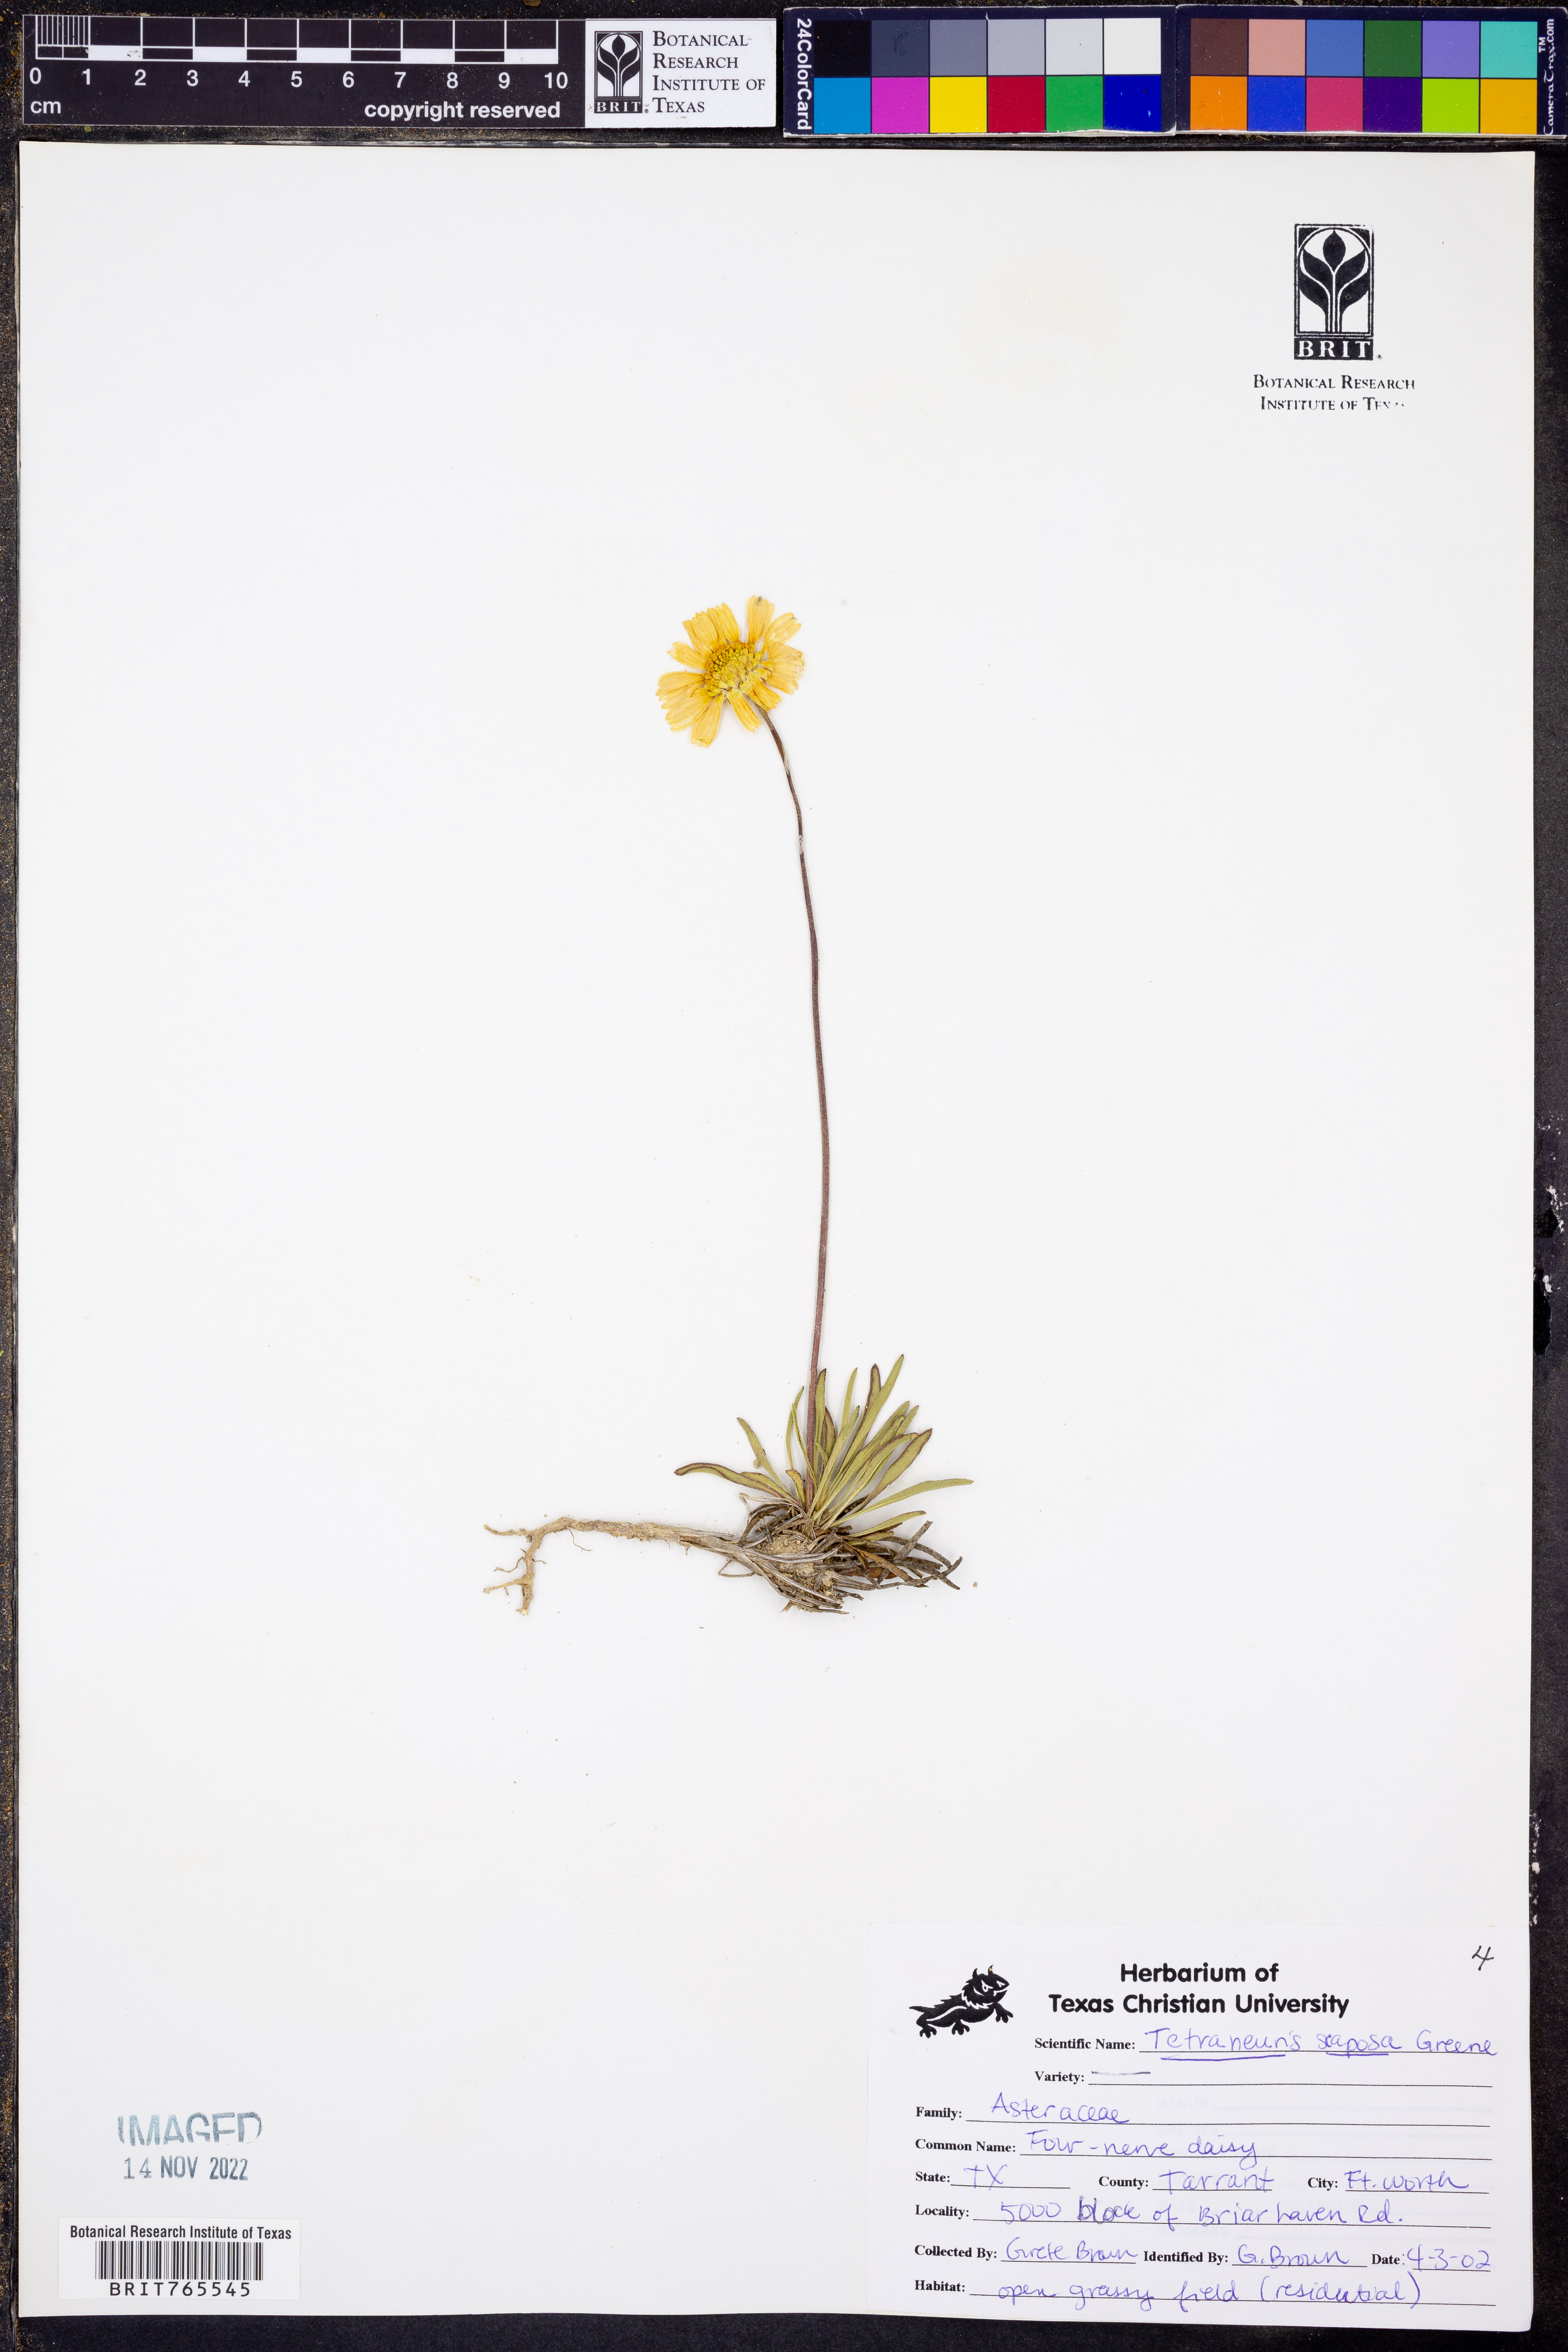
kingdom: Plantae
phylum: Tracheophyta
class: Magnoliopsida
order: Asterales
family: Asteraceae
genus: Tetraneuris
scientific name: Tetraneuris scaposa
